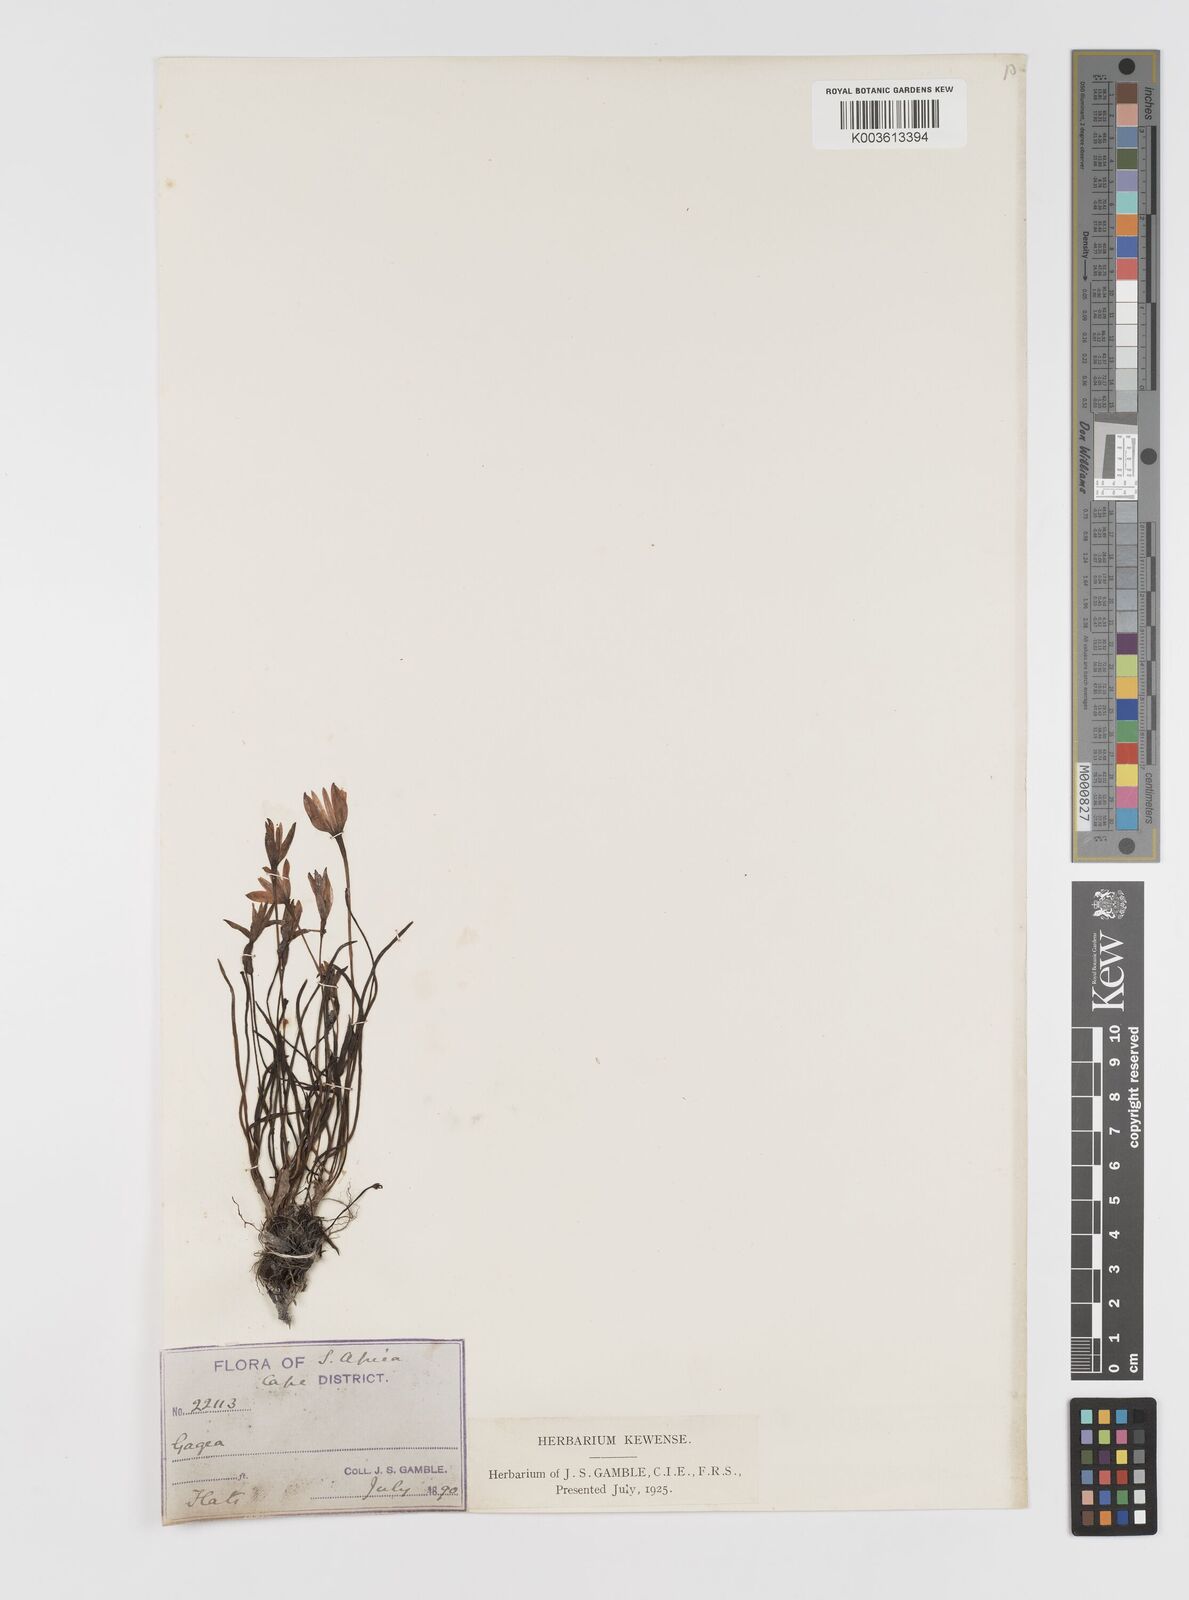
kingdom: Plantae
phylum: Tracheophyta
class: Liliopsida
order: Asparagales
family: Hypoxidaceae
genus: Pauridia
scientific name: Pauridia affinis
